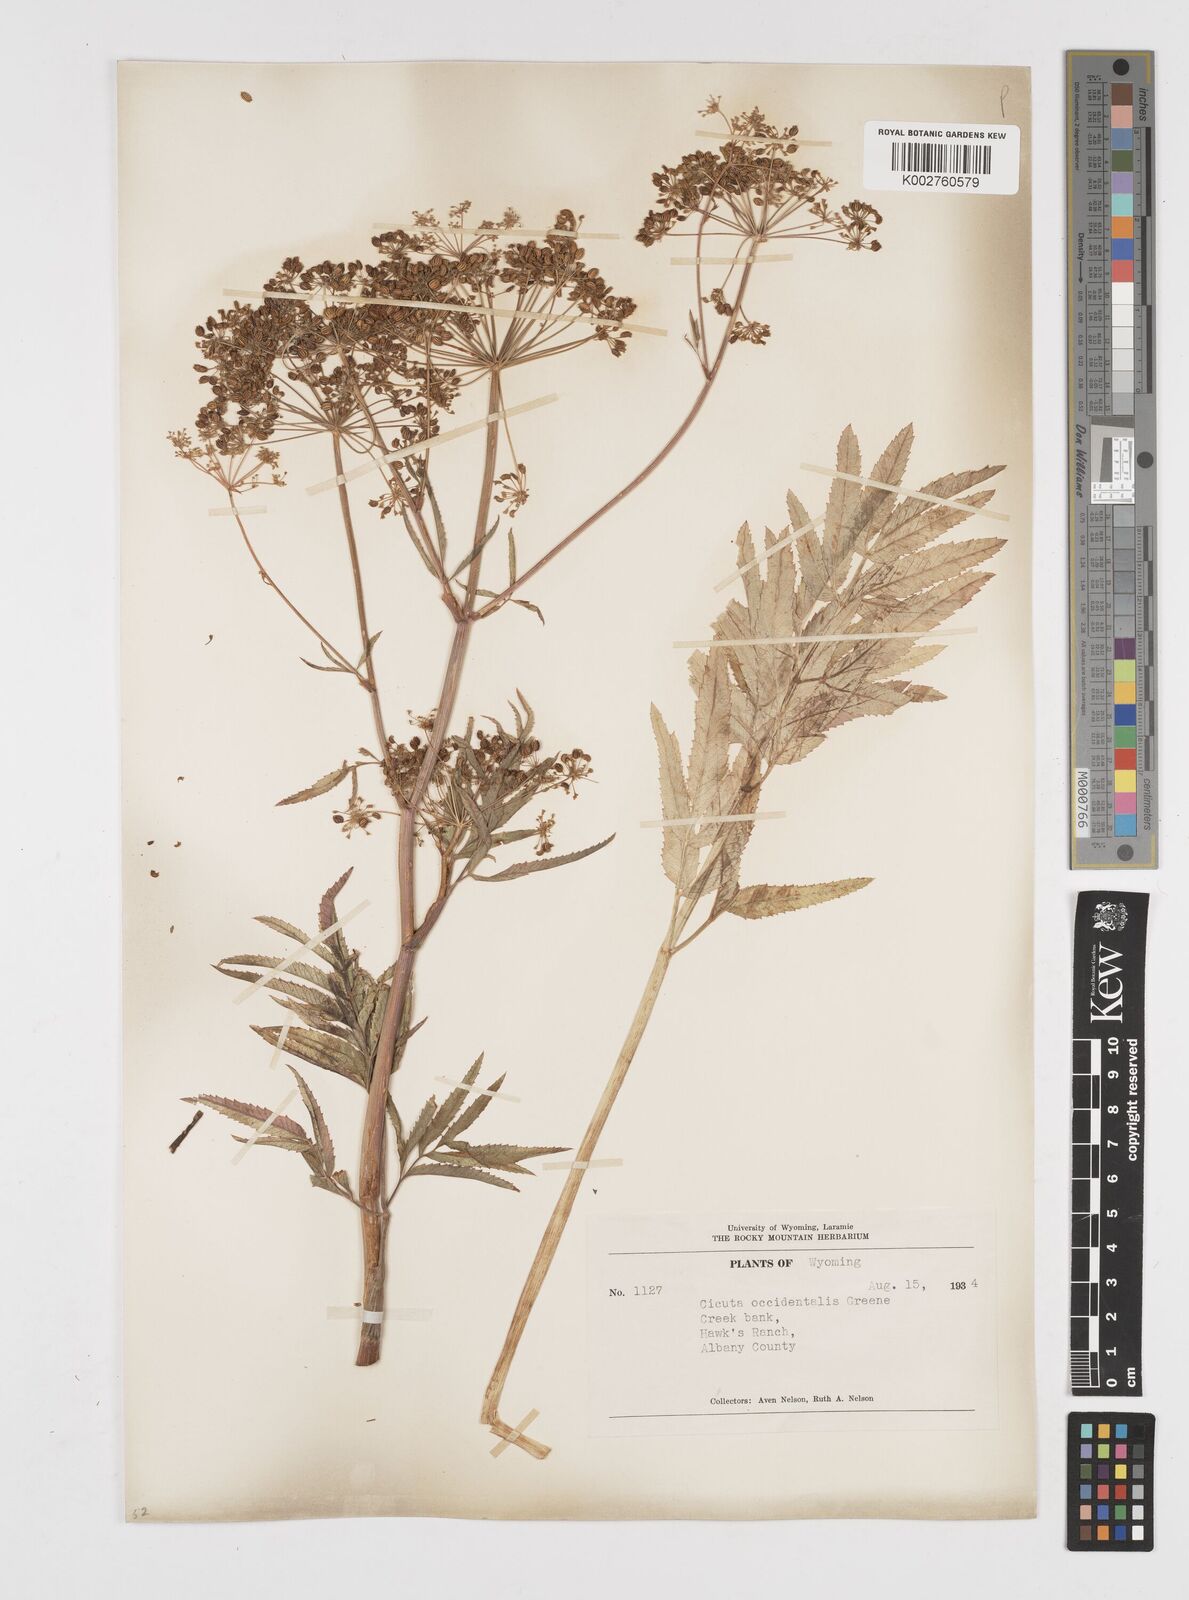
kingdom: Plantae
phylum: Tracheophyta
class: Magnoliopsida
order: Apiales
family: Apiaceae
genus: Cicuta
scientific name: Cicuta douglasii
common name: Western water-hemlock
